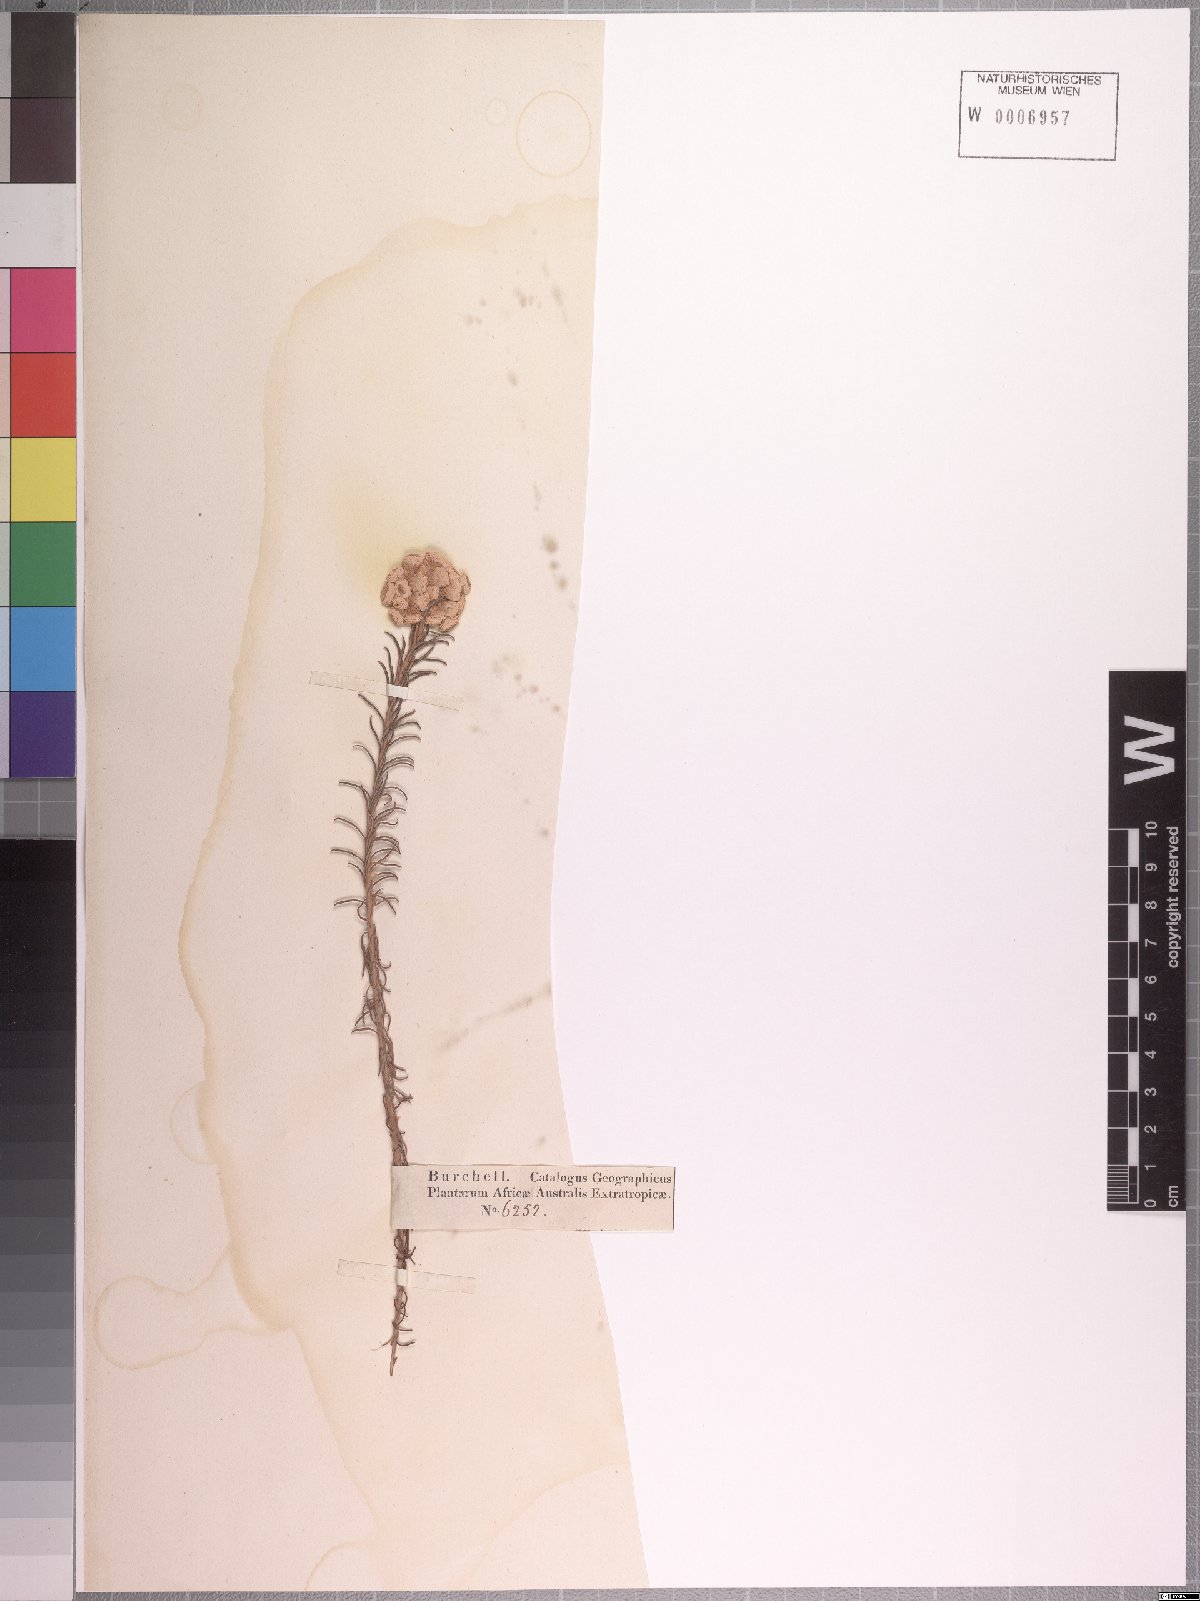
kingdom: Plantae
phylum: Tracheophyta
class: Magnoliopsida
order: Asterales
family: Asteraceae
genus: Helichrysum
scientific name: Helichrysum teretifolium
